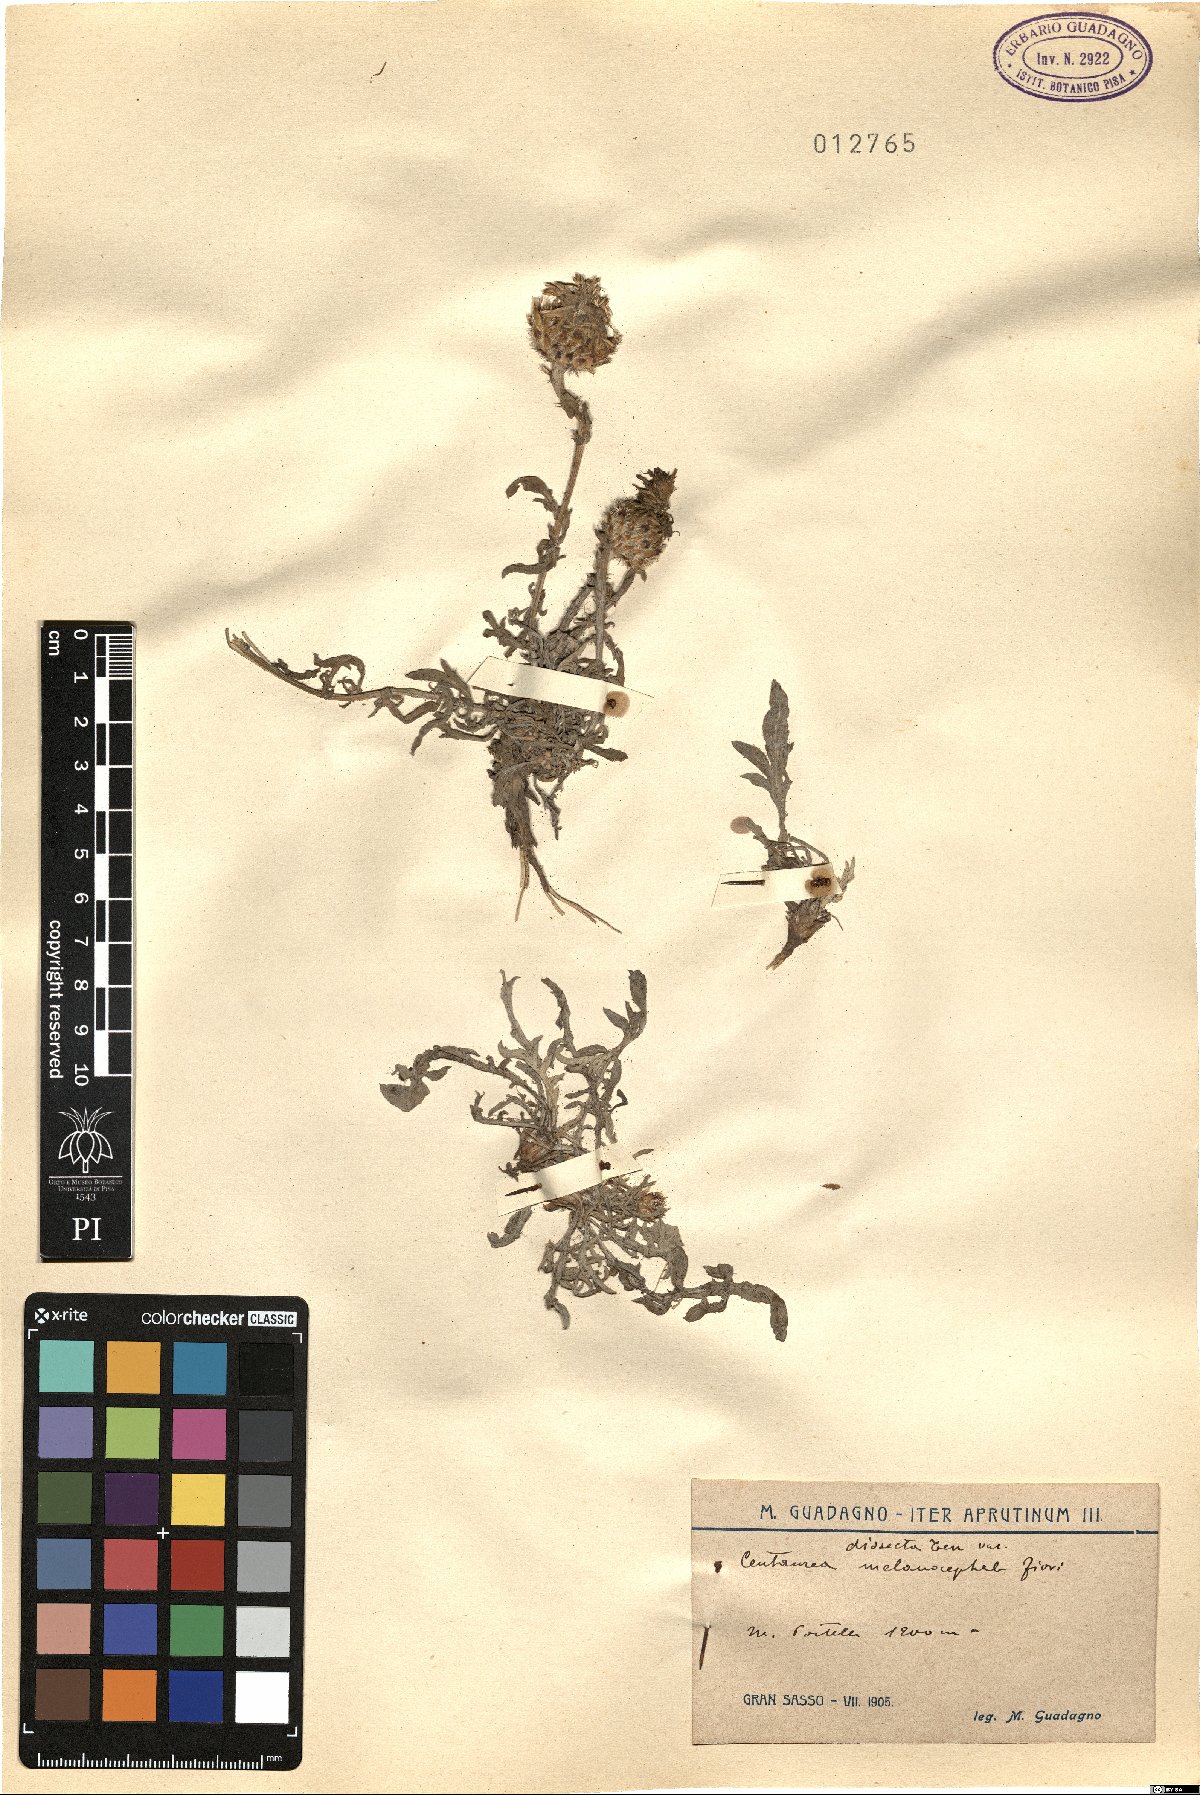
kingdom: Plantae
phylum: Tracheophyta
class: Magnoliopsida
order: Asterales
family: Asteraceae
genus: Centaurea
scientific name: Centaurea tenorei
